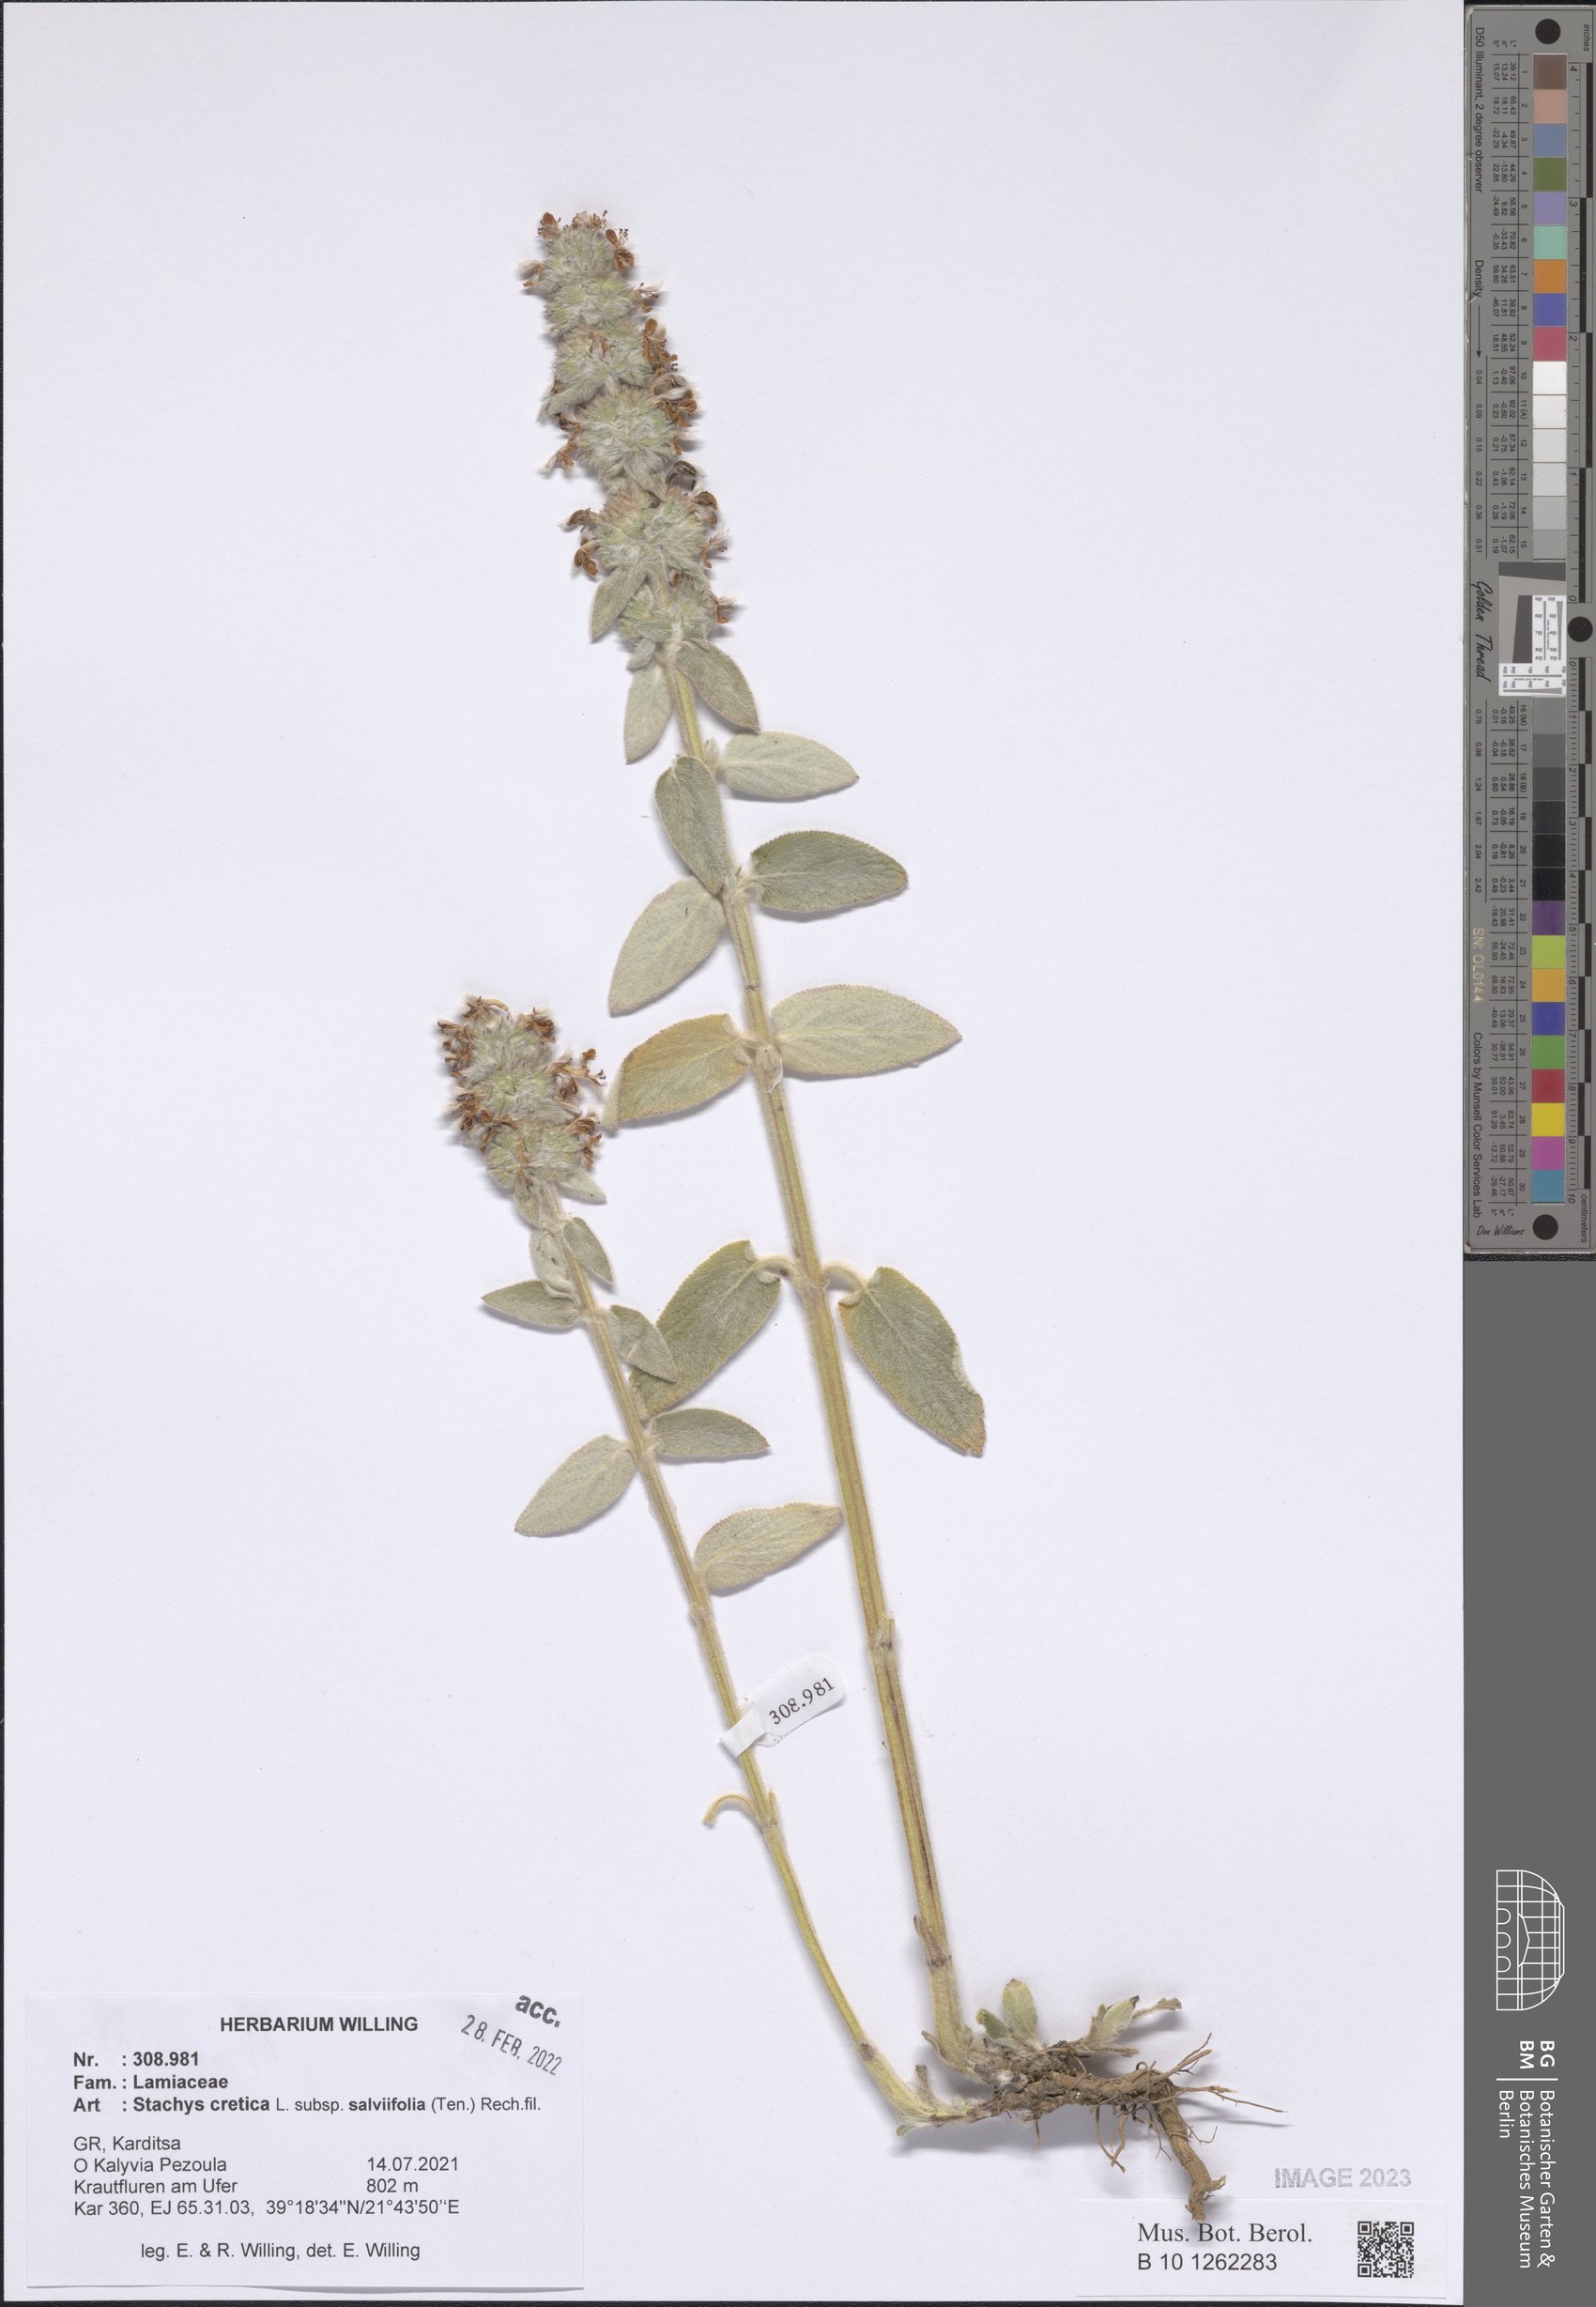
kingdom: Plantae
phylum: Tracheophyta
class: Magnoliopsida
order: Lamiales
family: Lamiaceae
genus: Stachys
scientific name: Stachys cretica
